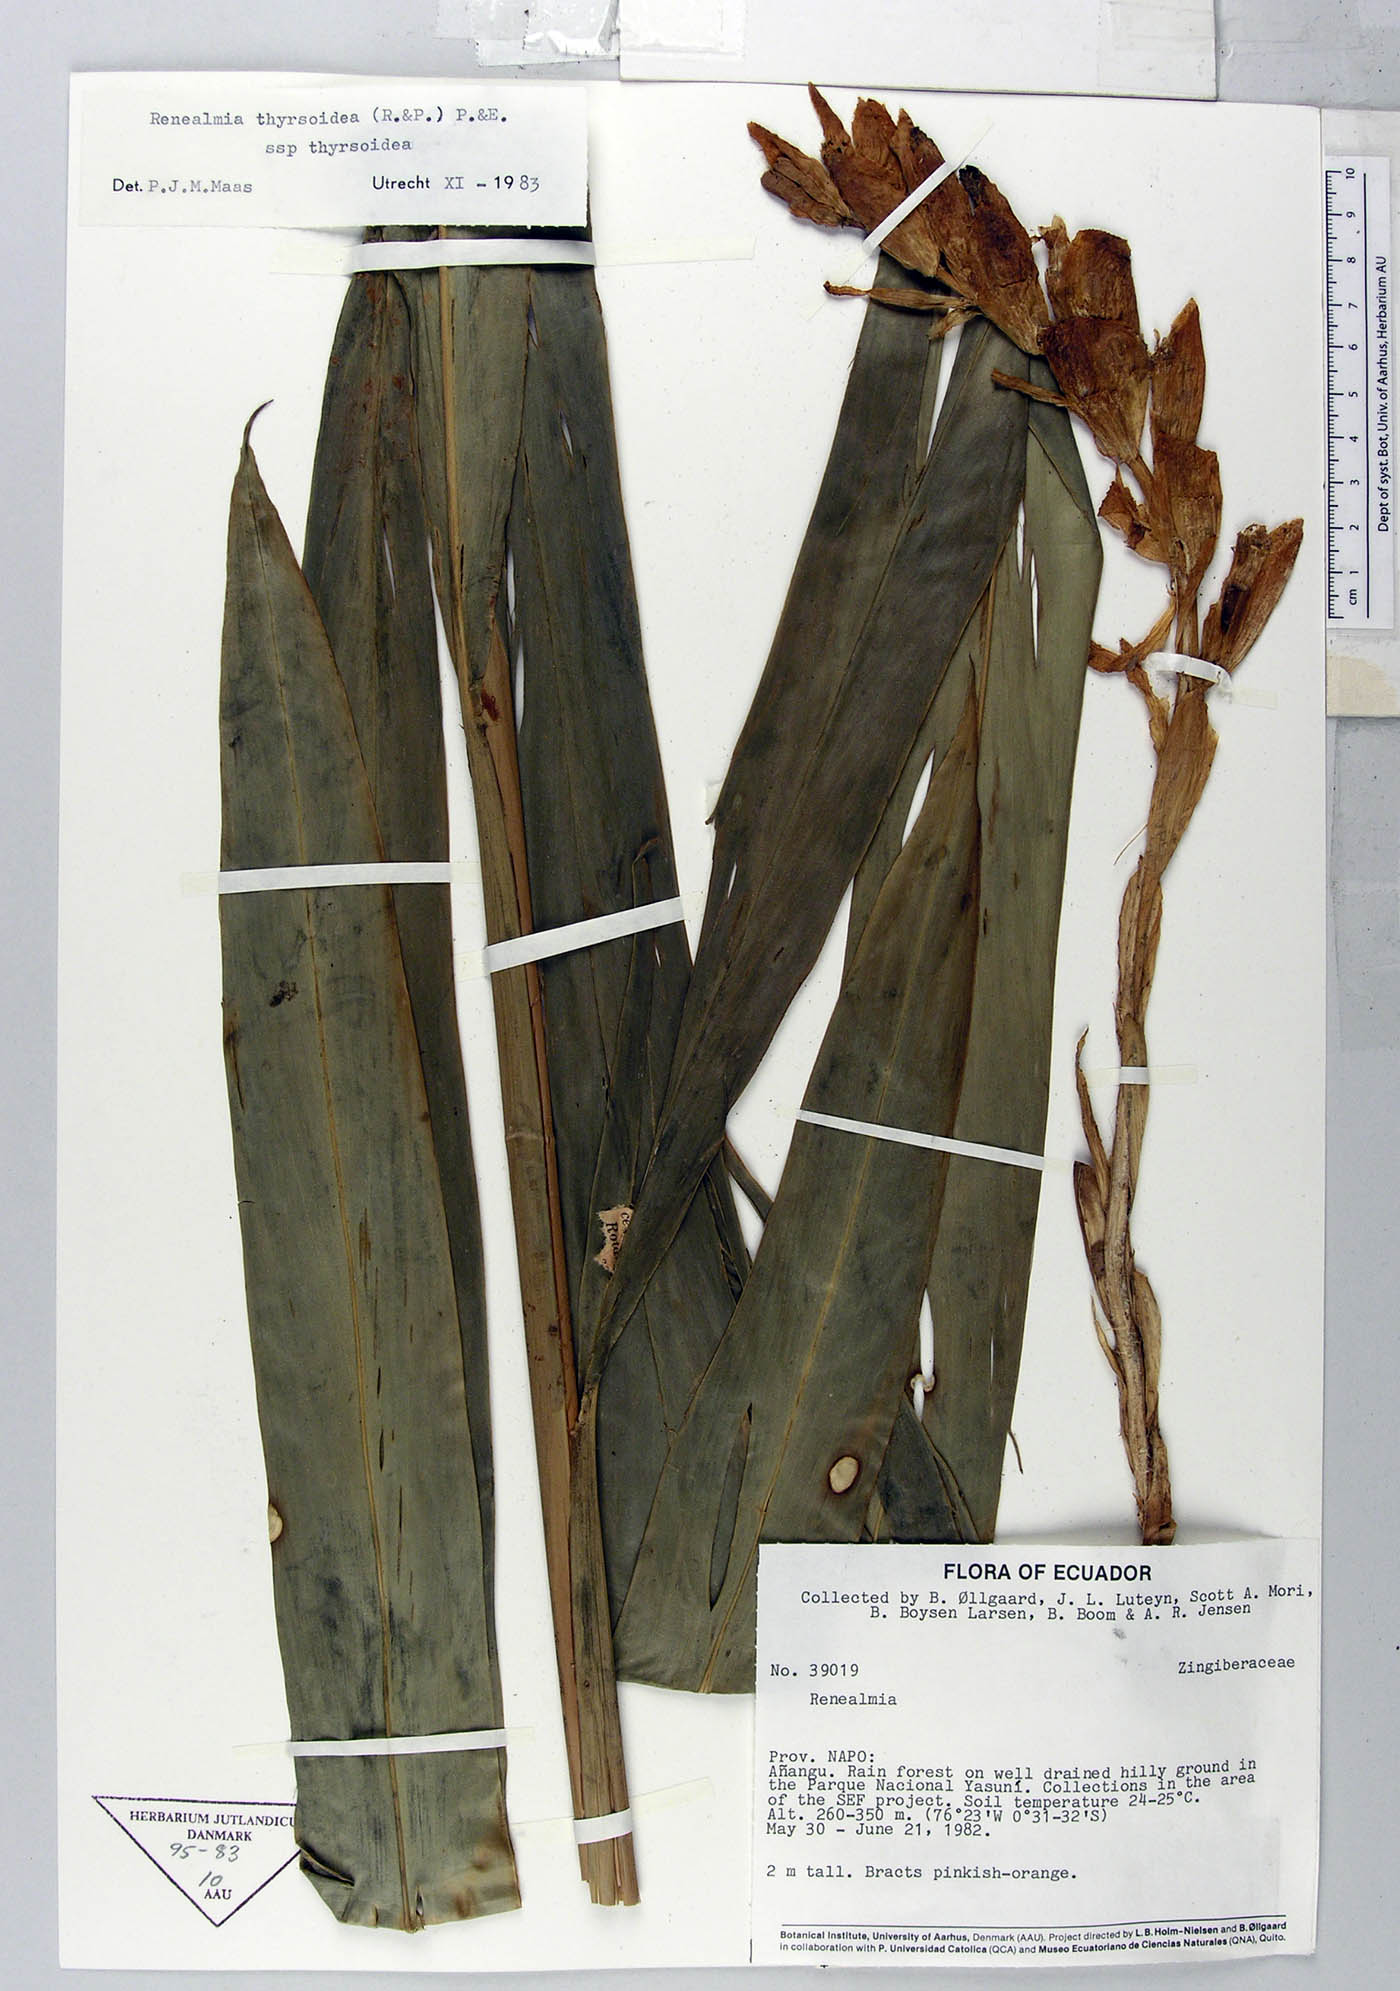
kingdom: Plantae
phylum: Tracheophyta
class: Liliopsida
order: Zingiberales
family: Zingiberaceae
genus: Renealmia
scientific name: Renealmia thyrsoidea
